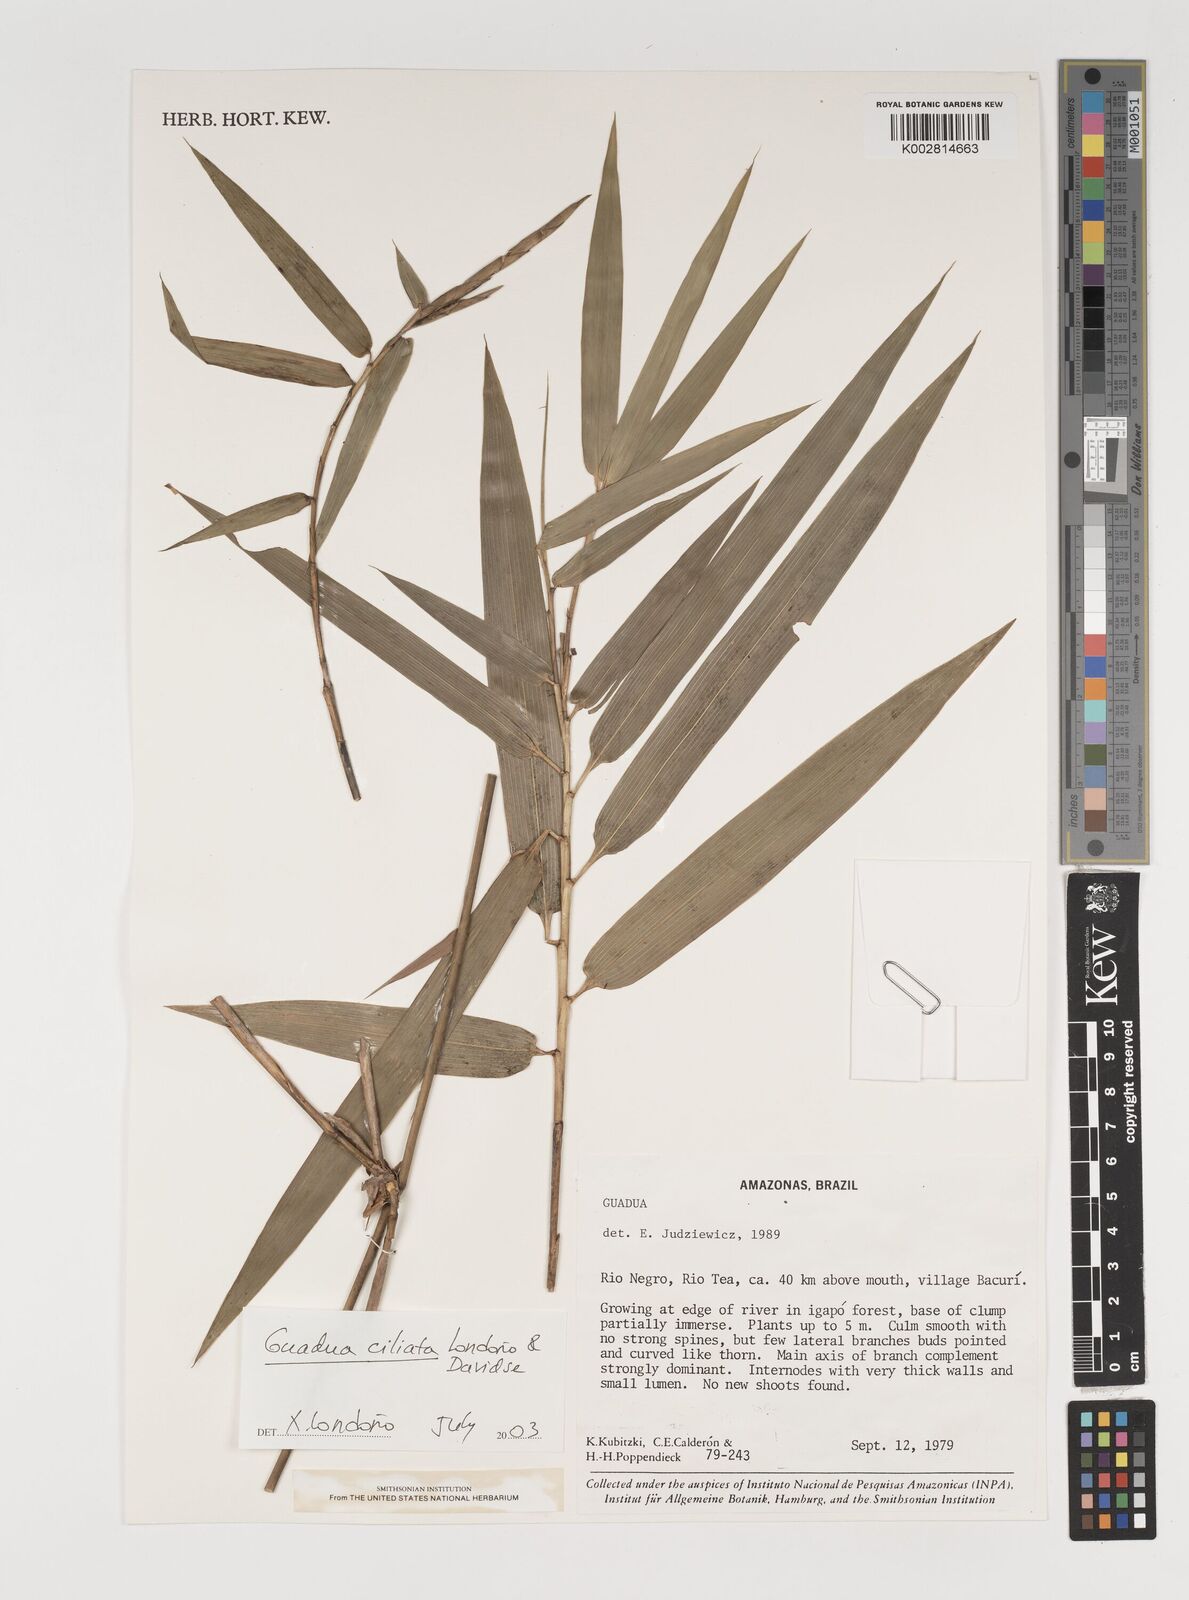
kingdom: Plantae
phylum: Tracheophyta
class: Liliopsida
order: Poales
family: Poaceae
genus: Guadua
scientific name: Guadua ciliata
